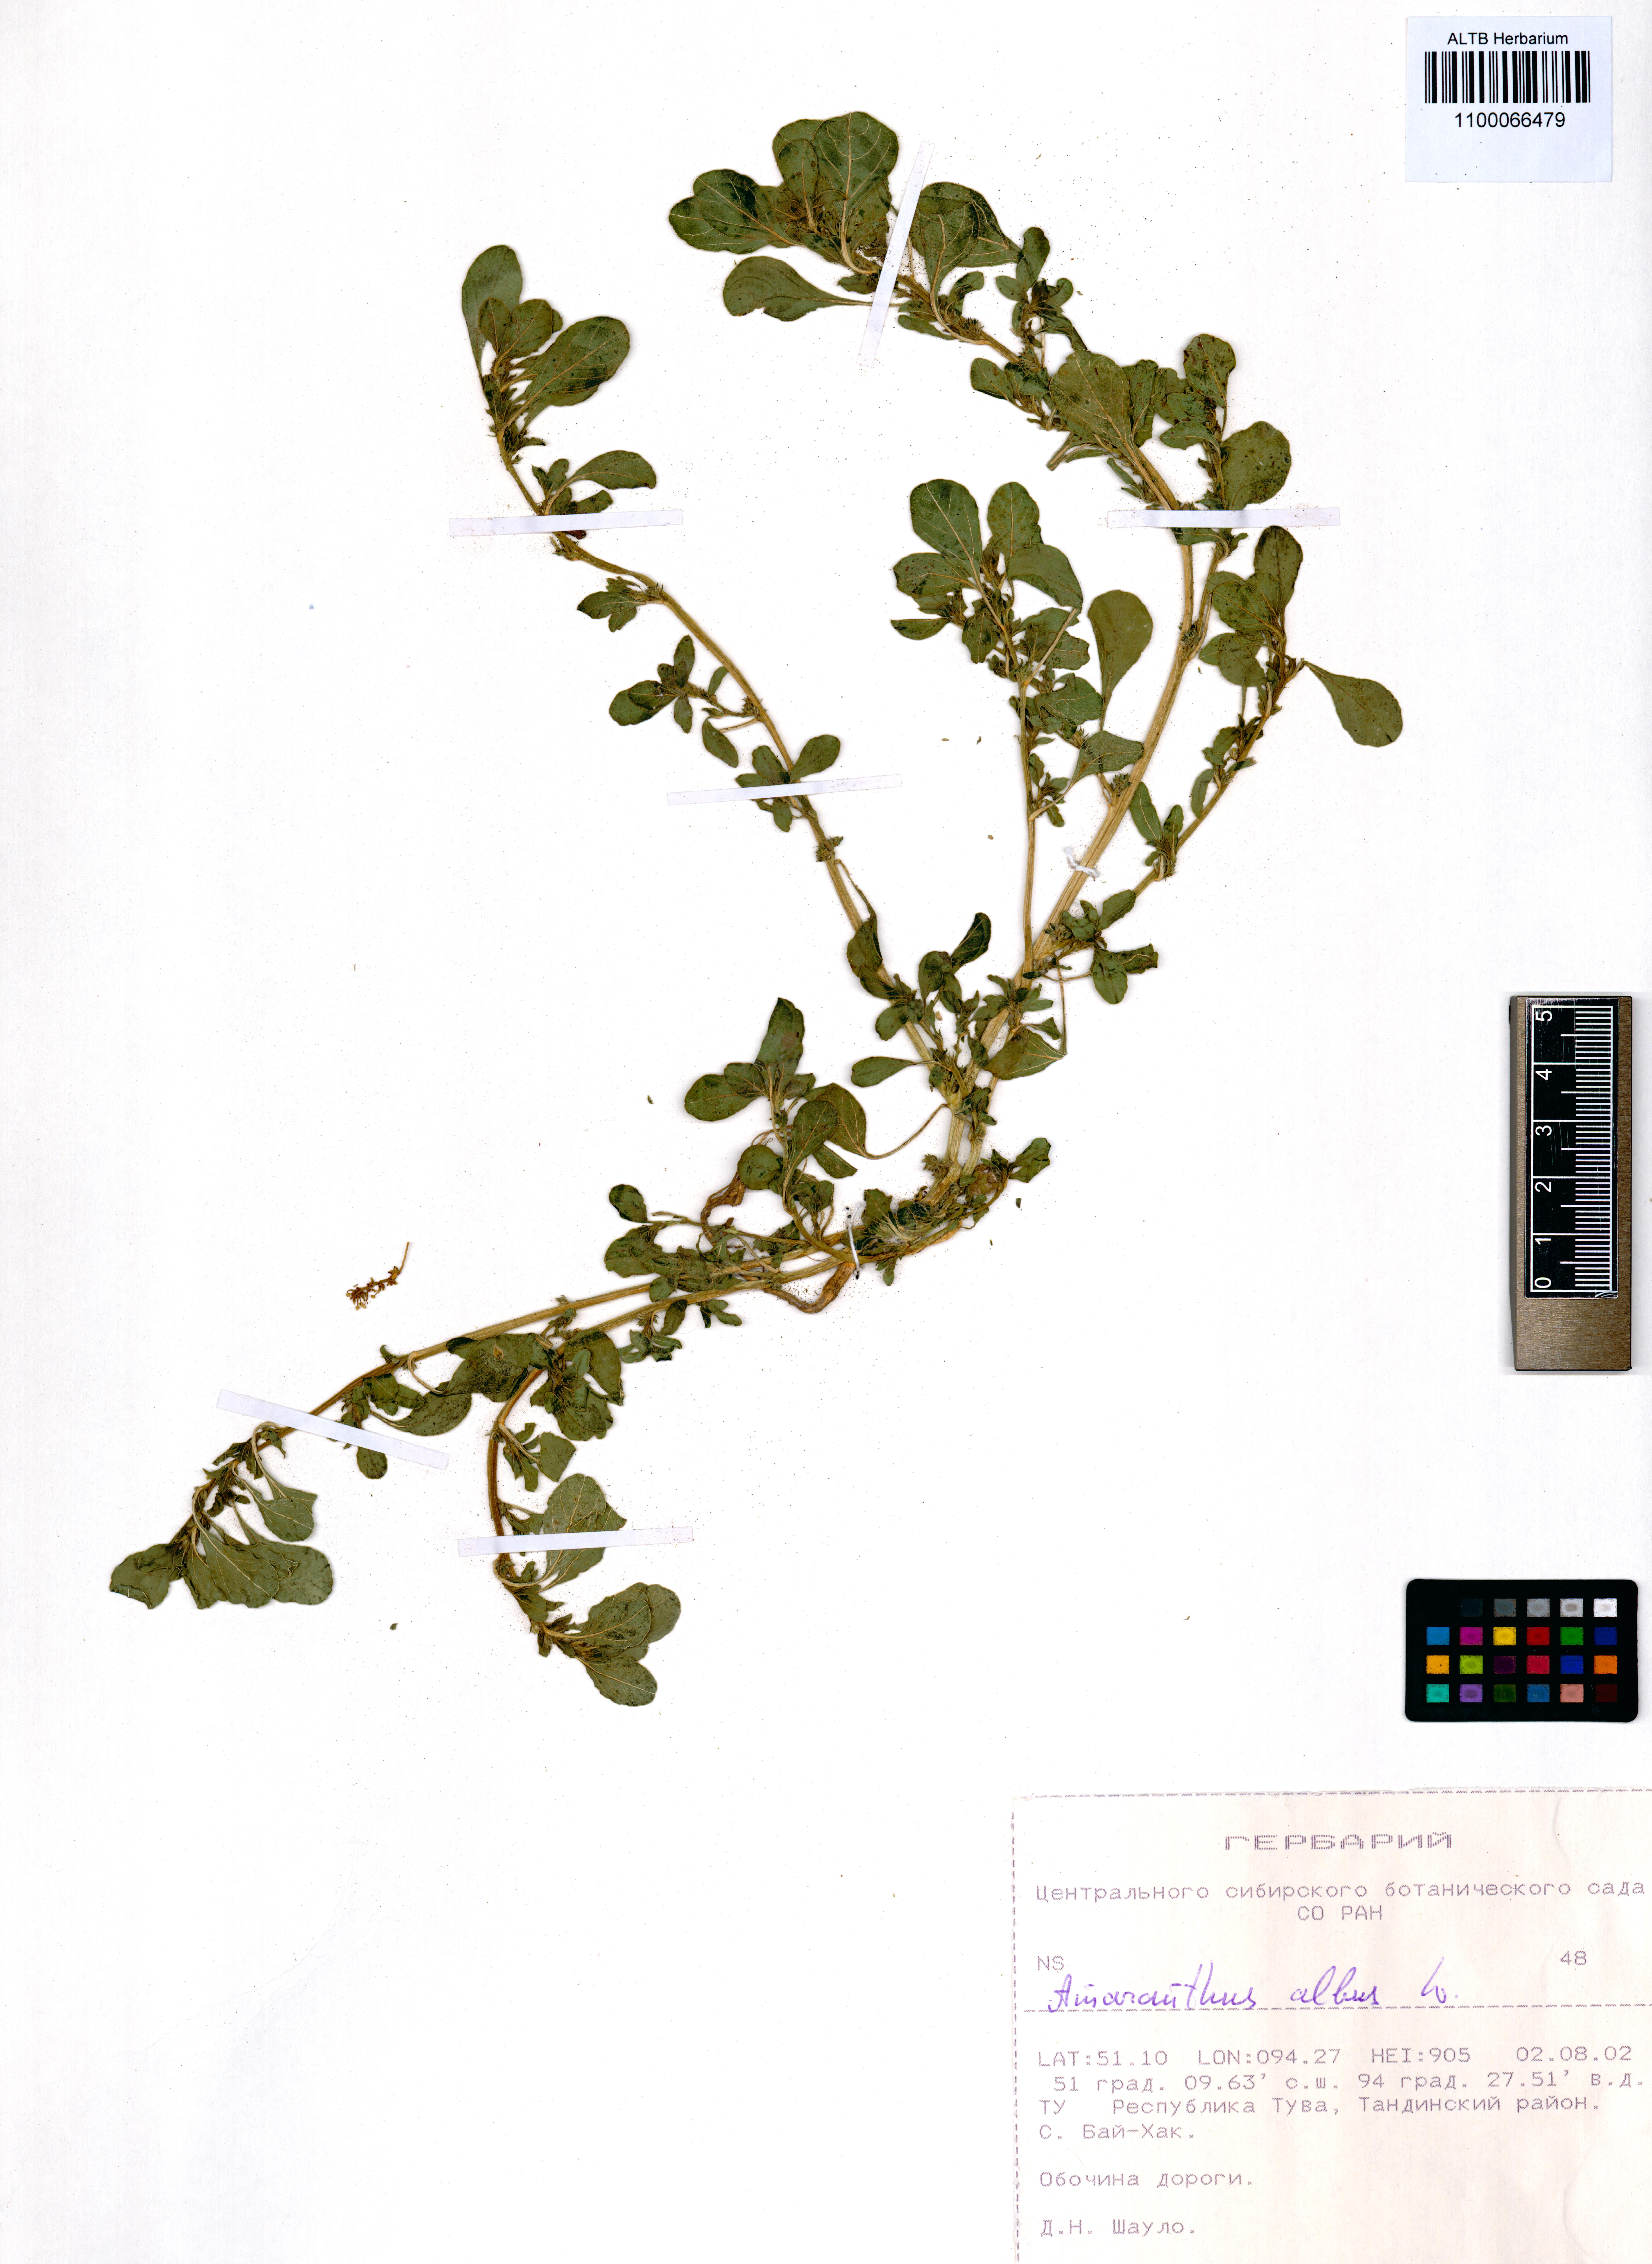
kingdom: Plantae
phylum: Tracheophyta
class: Magnoliopsida
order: Caryophyllales
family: Amaranthaceae
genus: Amaranthus
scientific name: Amaranthus albus
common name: White pigweed
